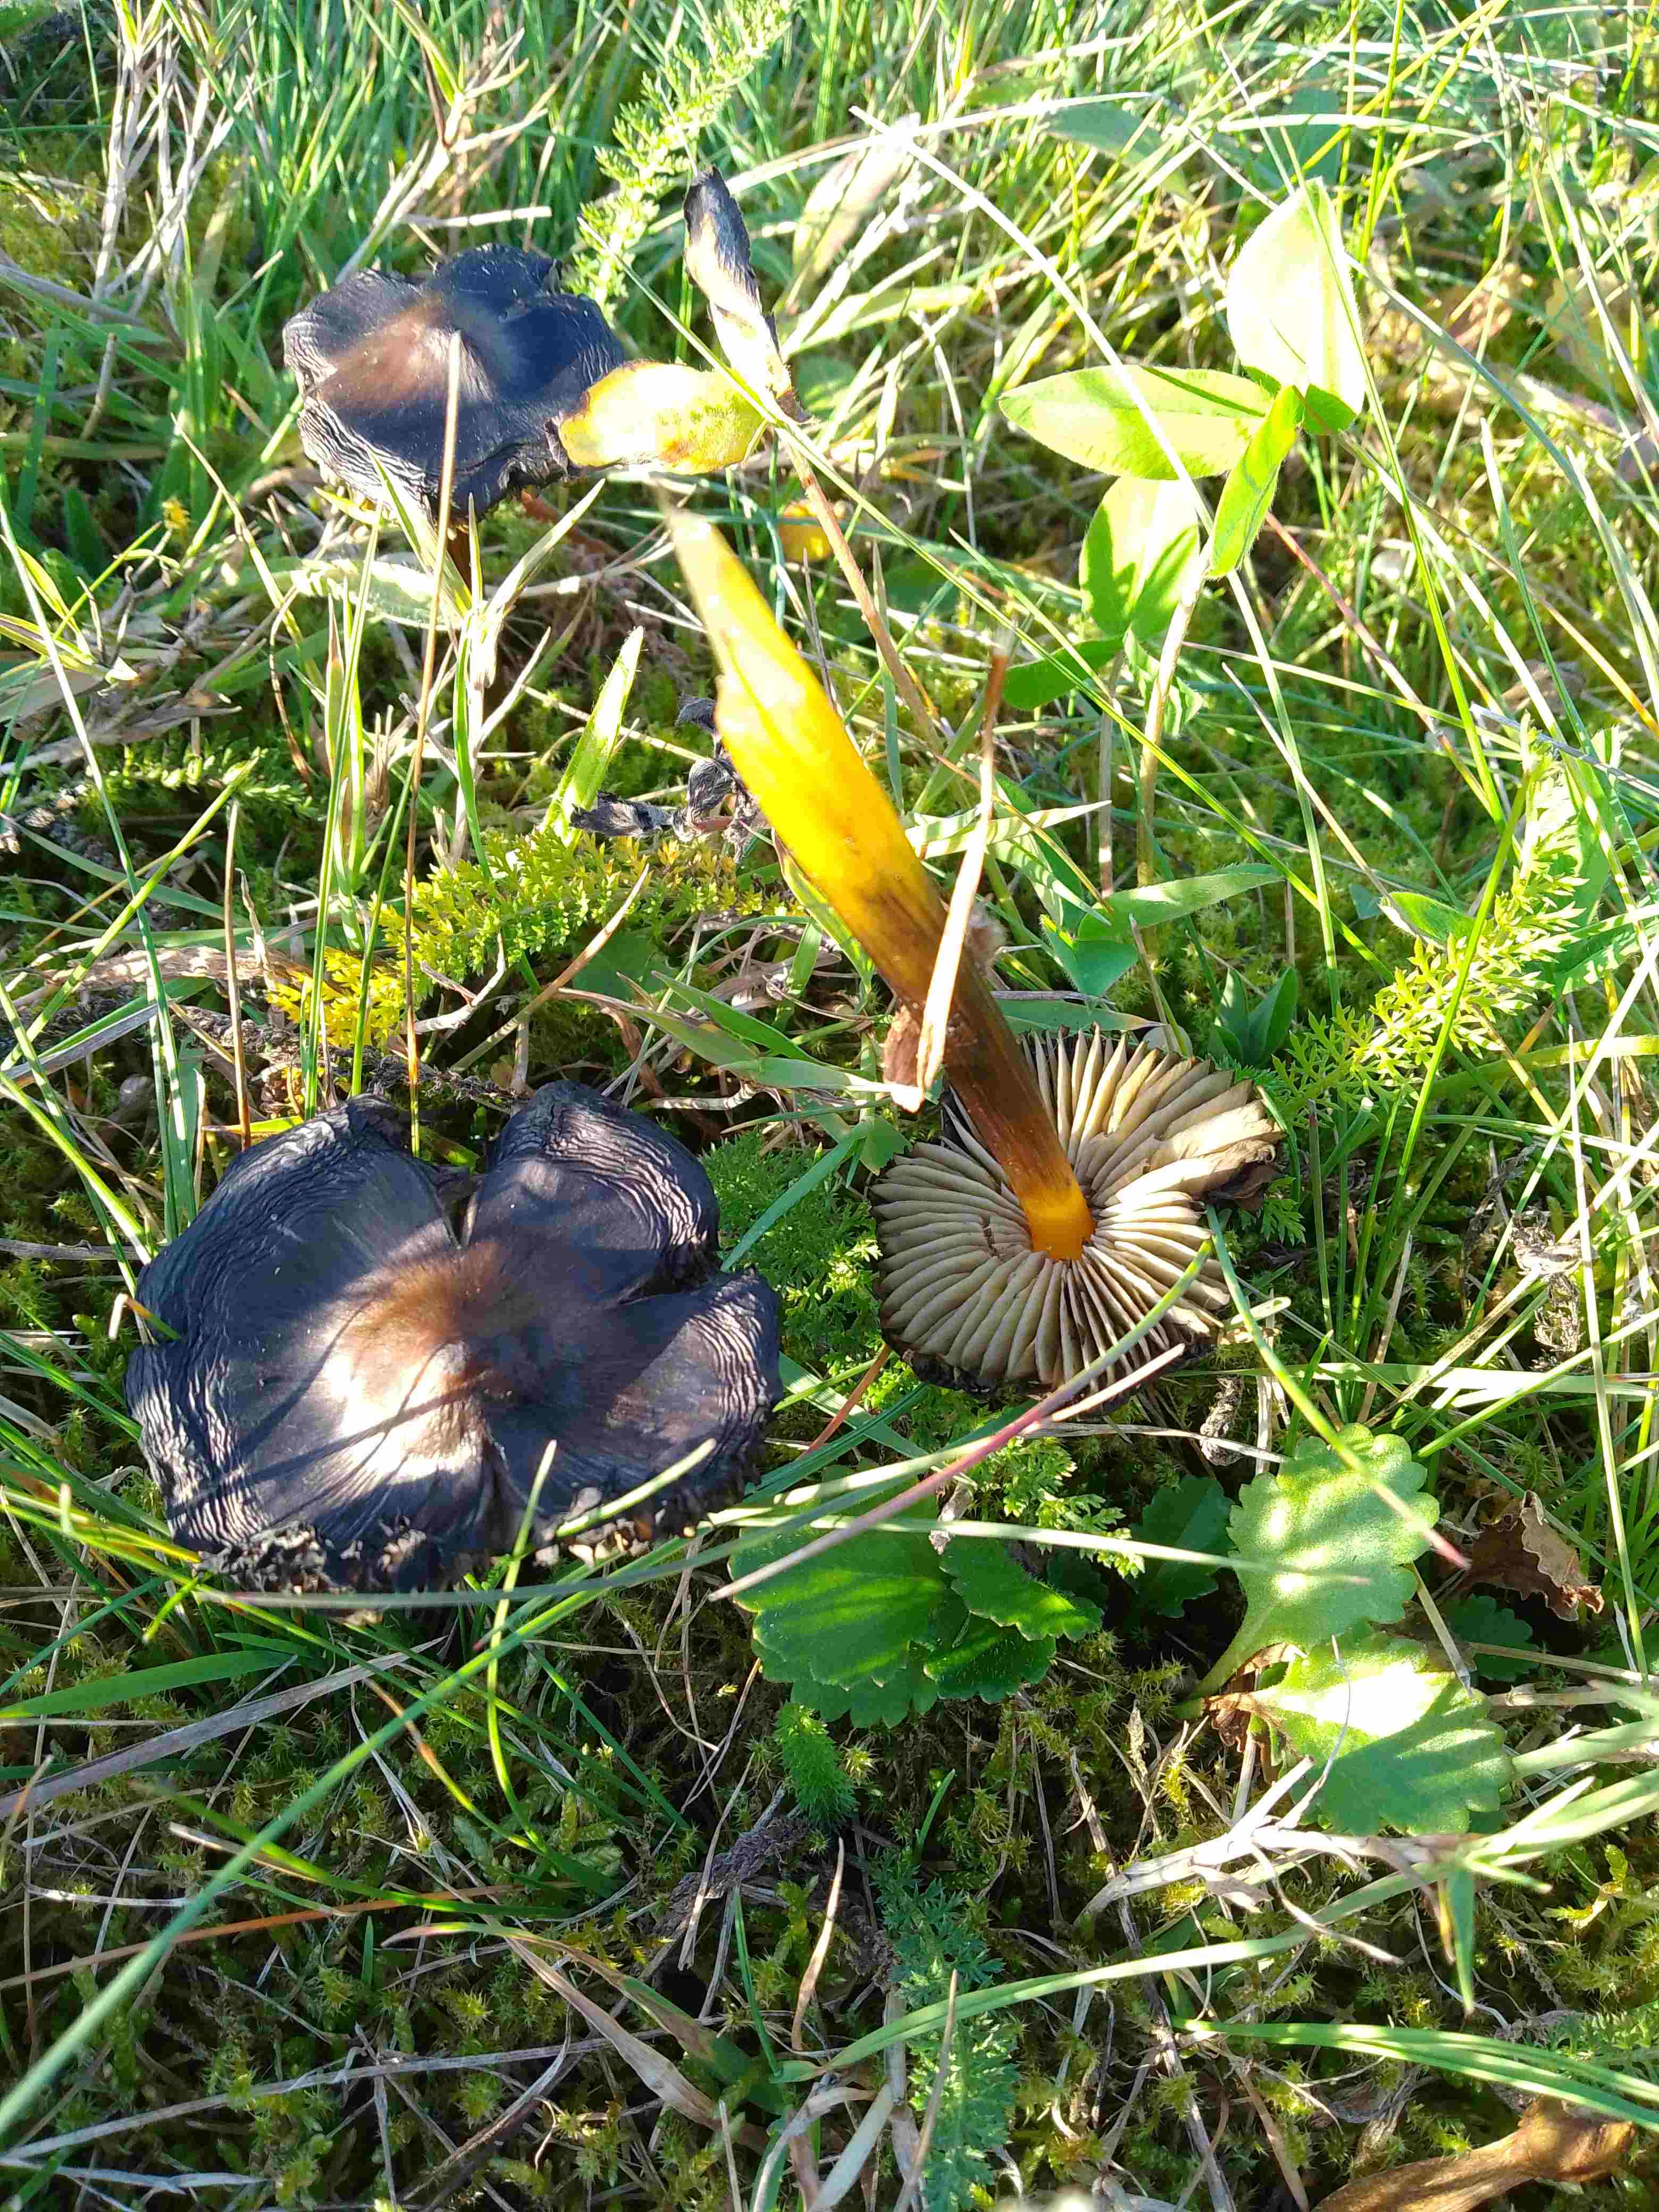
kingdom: Fungi
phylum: Basidiomycota
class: Agaricomycetes
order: Agaricales
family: Hygrophoraceae
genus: Hygrocybe
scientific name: Hygrocybe conica
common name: kegle-vokshat
